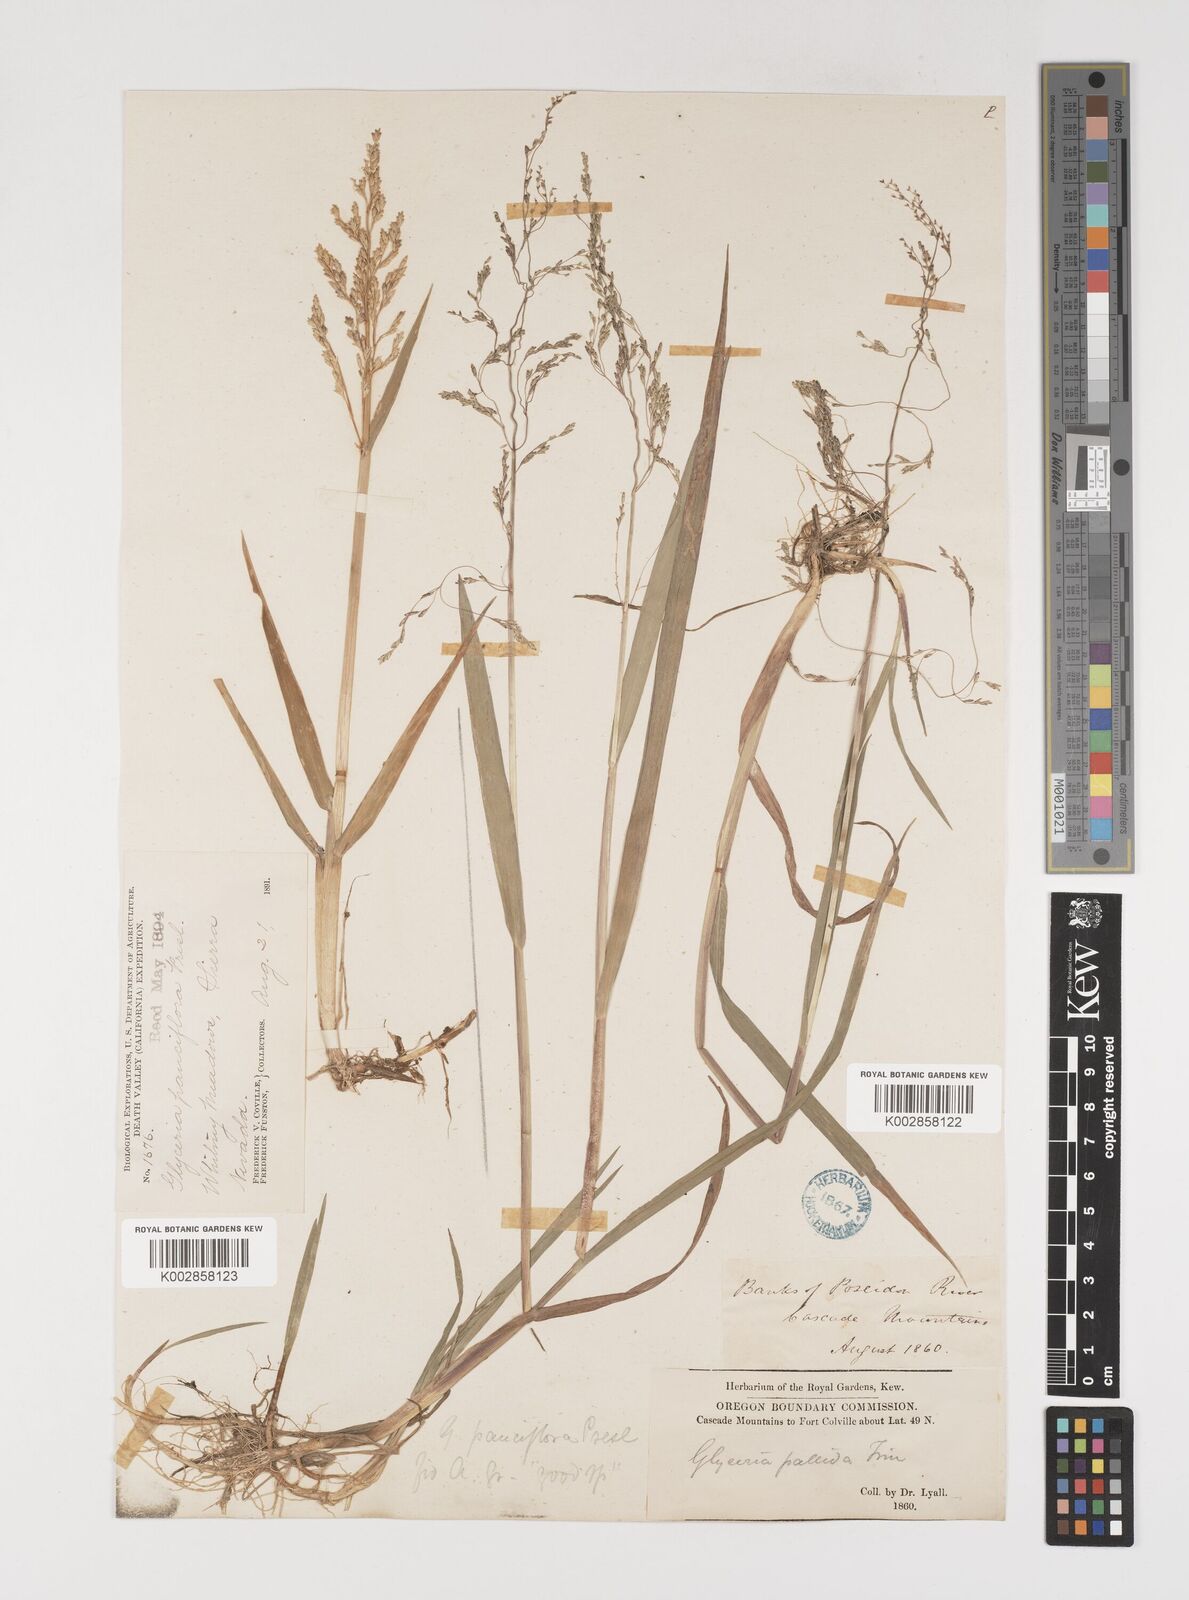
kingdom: Plantae
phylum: Tracheophyta
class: Liliopsida
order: Poales
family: Poaceae
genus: Torreyochloa
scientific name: Torreyochloa pallida
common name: Pale false mannagrass
